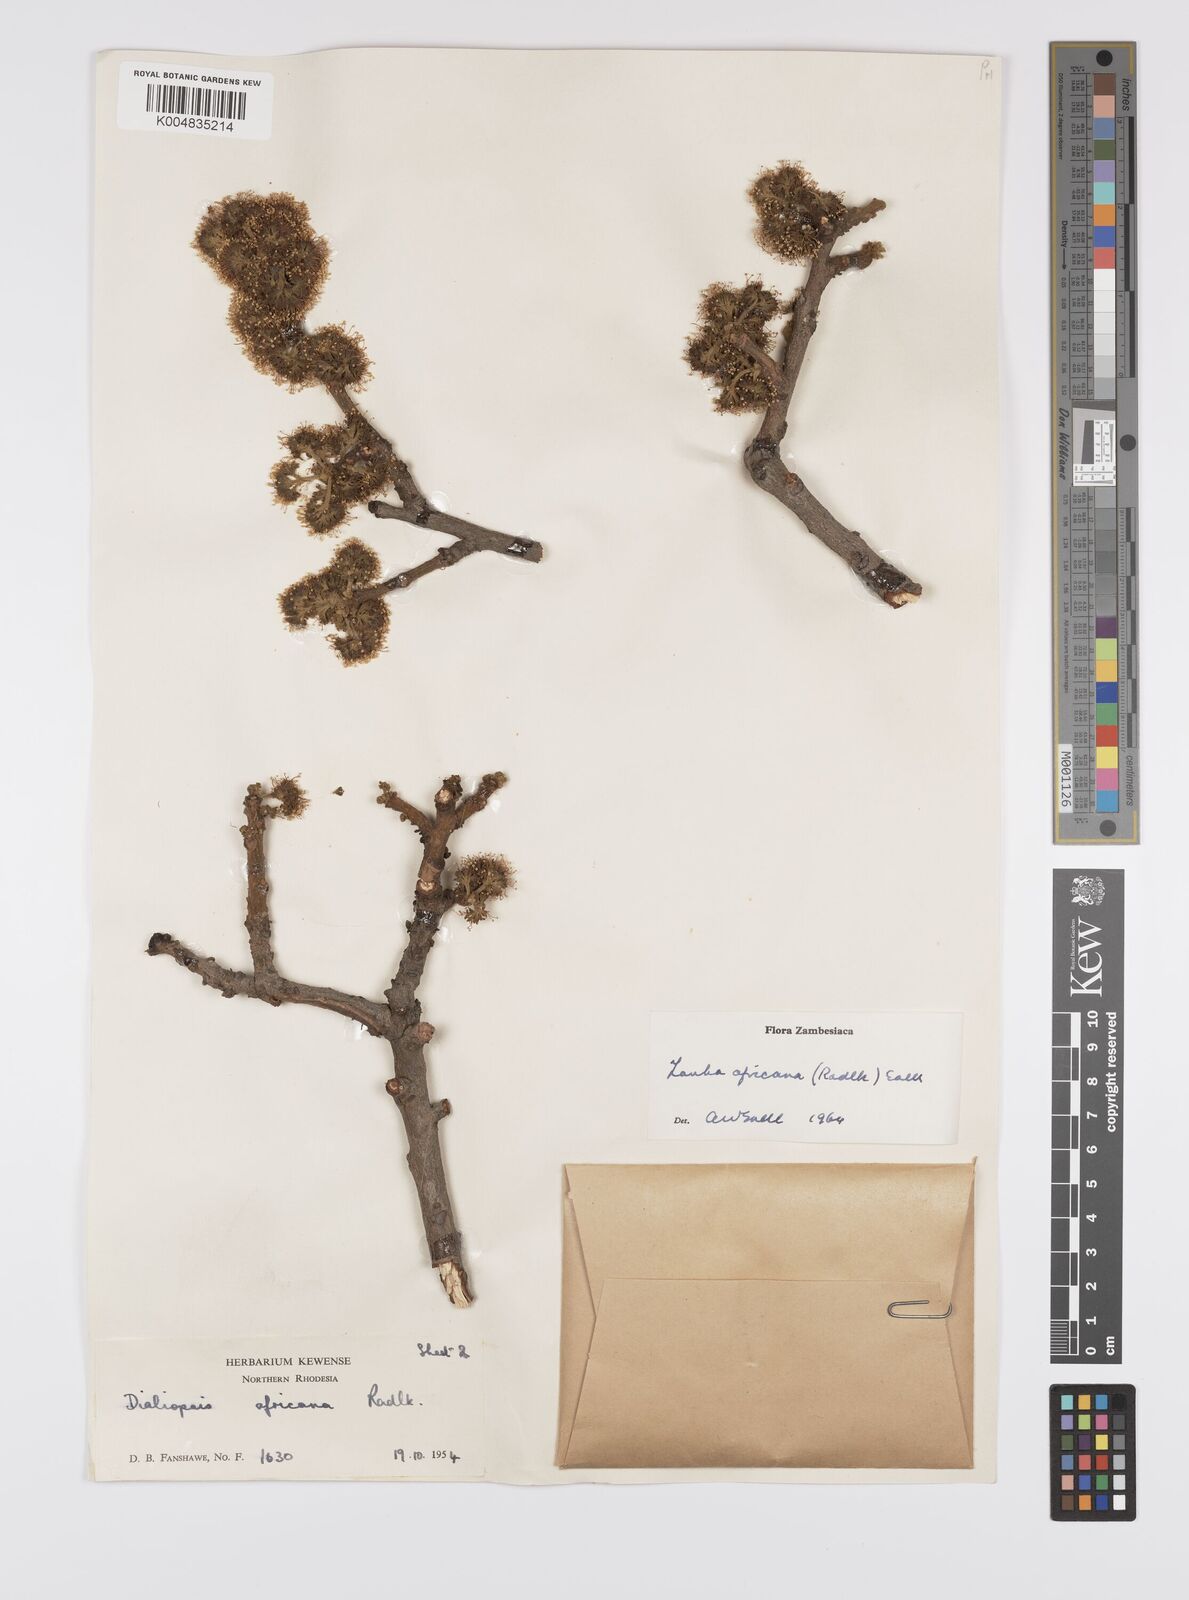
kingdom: Plantae
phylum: Tracheophyta
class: Magnoliopsida
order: Sapindales
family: Sapindaceae
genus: Zanha
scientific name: Zanha africana
